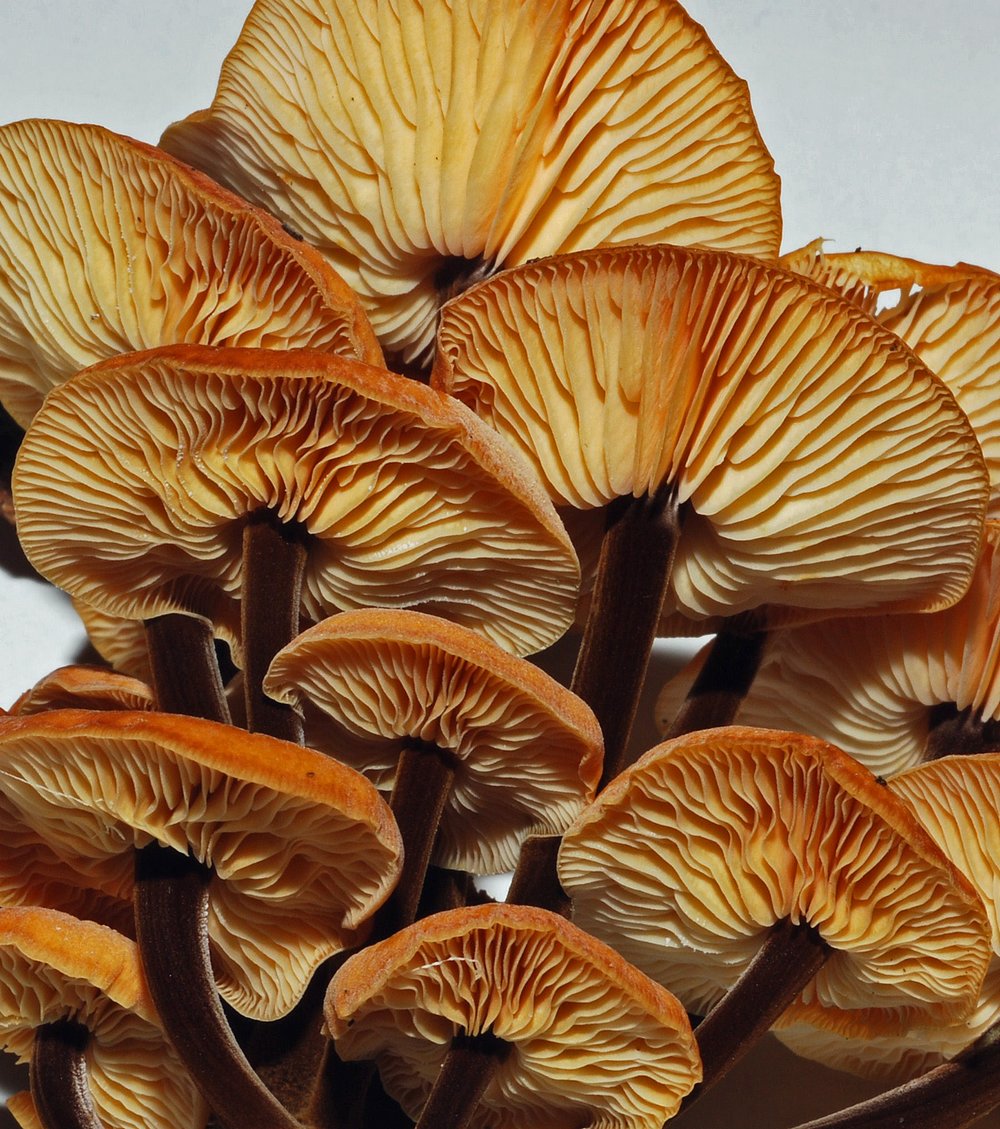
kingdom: Fungi
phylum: Basidiomycota
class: Agaricomycetes
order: Agaricales
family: Physalacriaceae
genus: Flammulina
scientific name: Flammulina velutipes
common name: gul fløjlsfod
